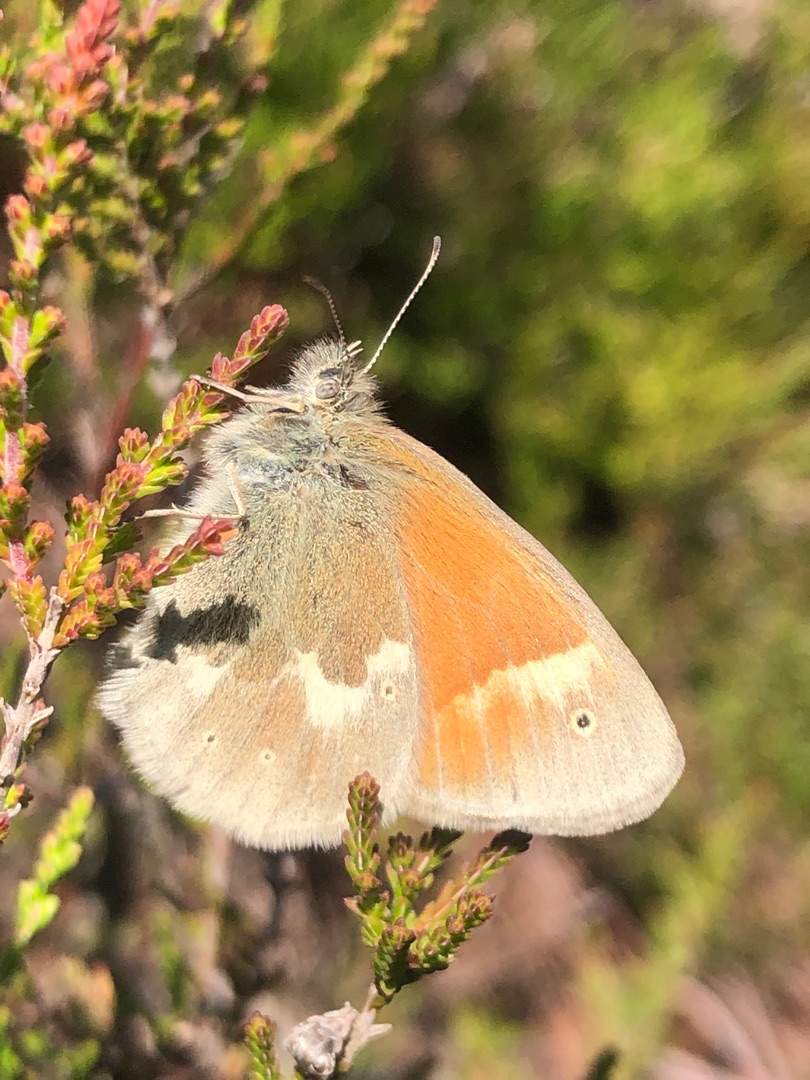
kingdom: Animalia
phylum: Arthropoda
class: Insecta
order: Lepidoptera
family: Nymphalidae
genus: Coenonympha
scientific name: Coenonympha tullia
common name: Moserandøje
